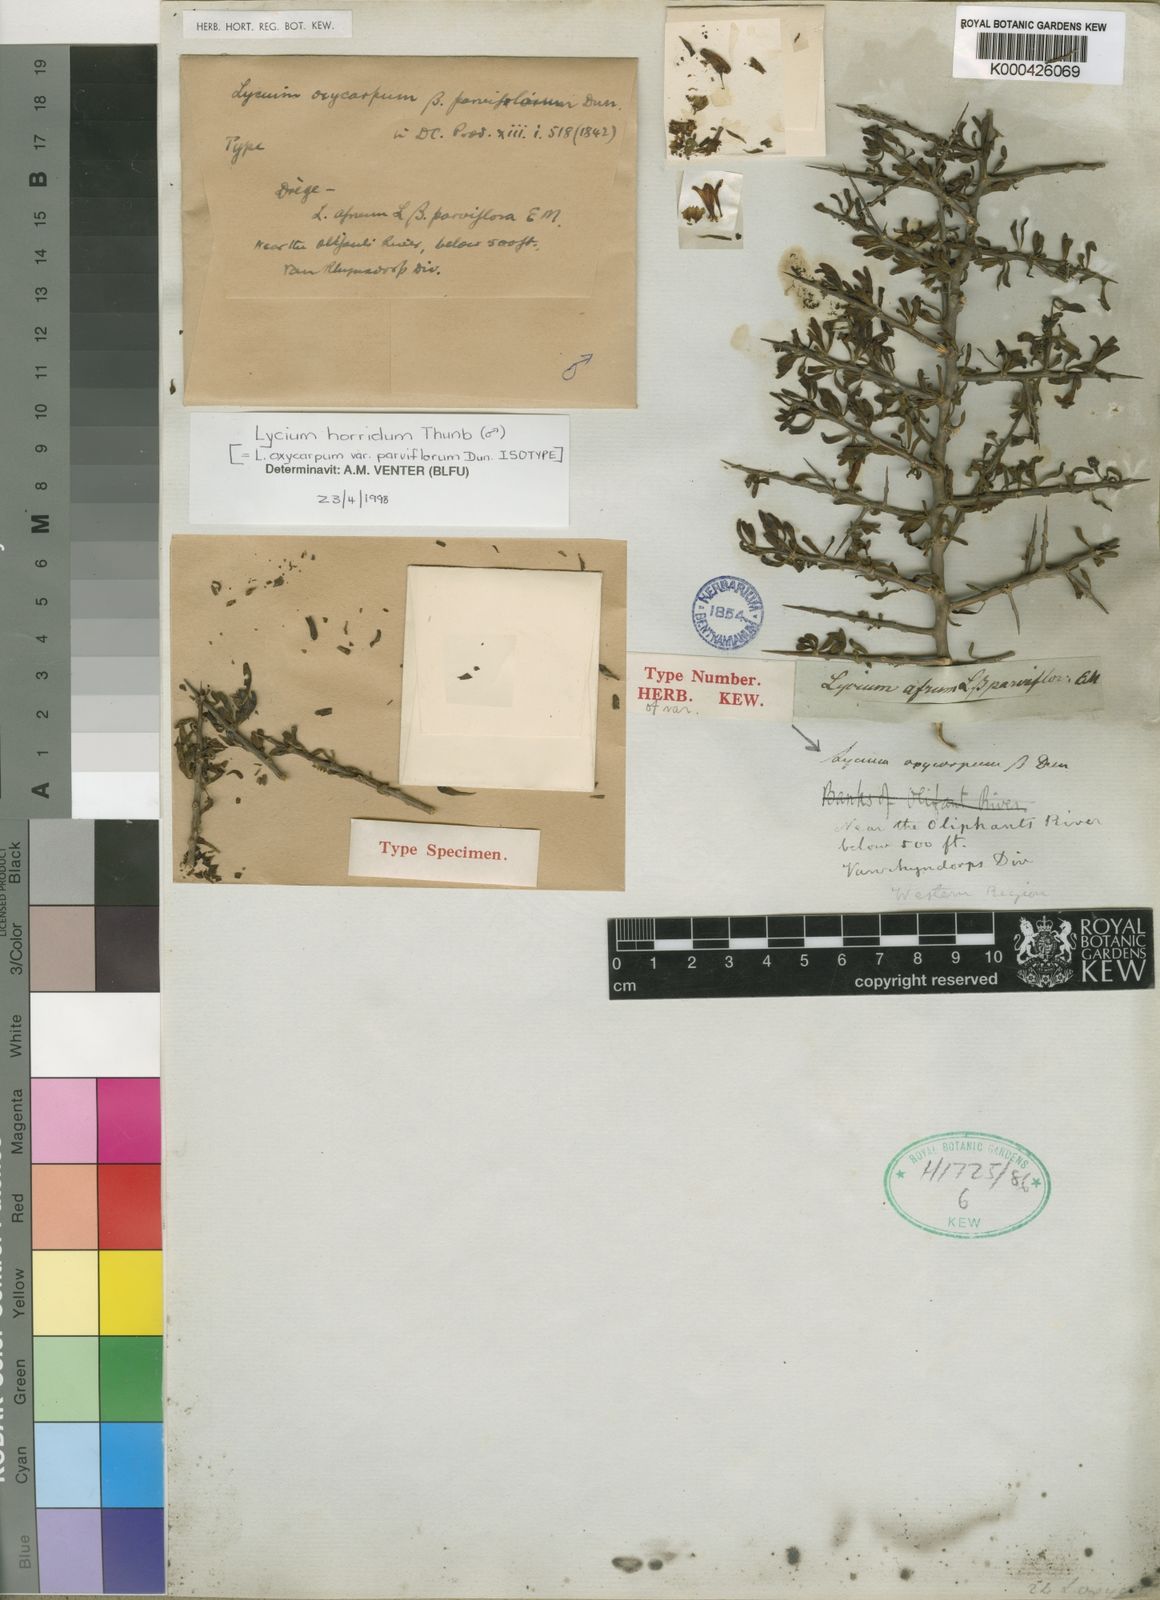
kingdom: Plantae
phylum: Tracheophyta
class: Magnoliopsida
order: Solanales
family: Solanaceae
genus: Lycium
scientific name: Lycium oxycarpum
